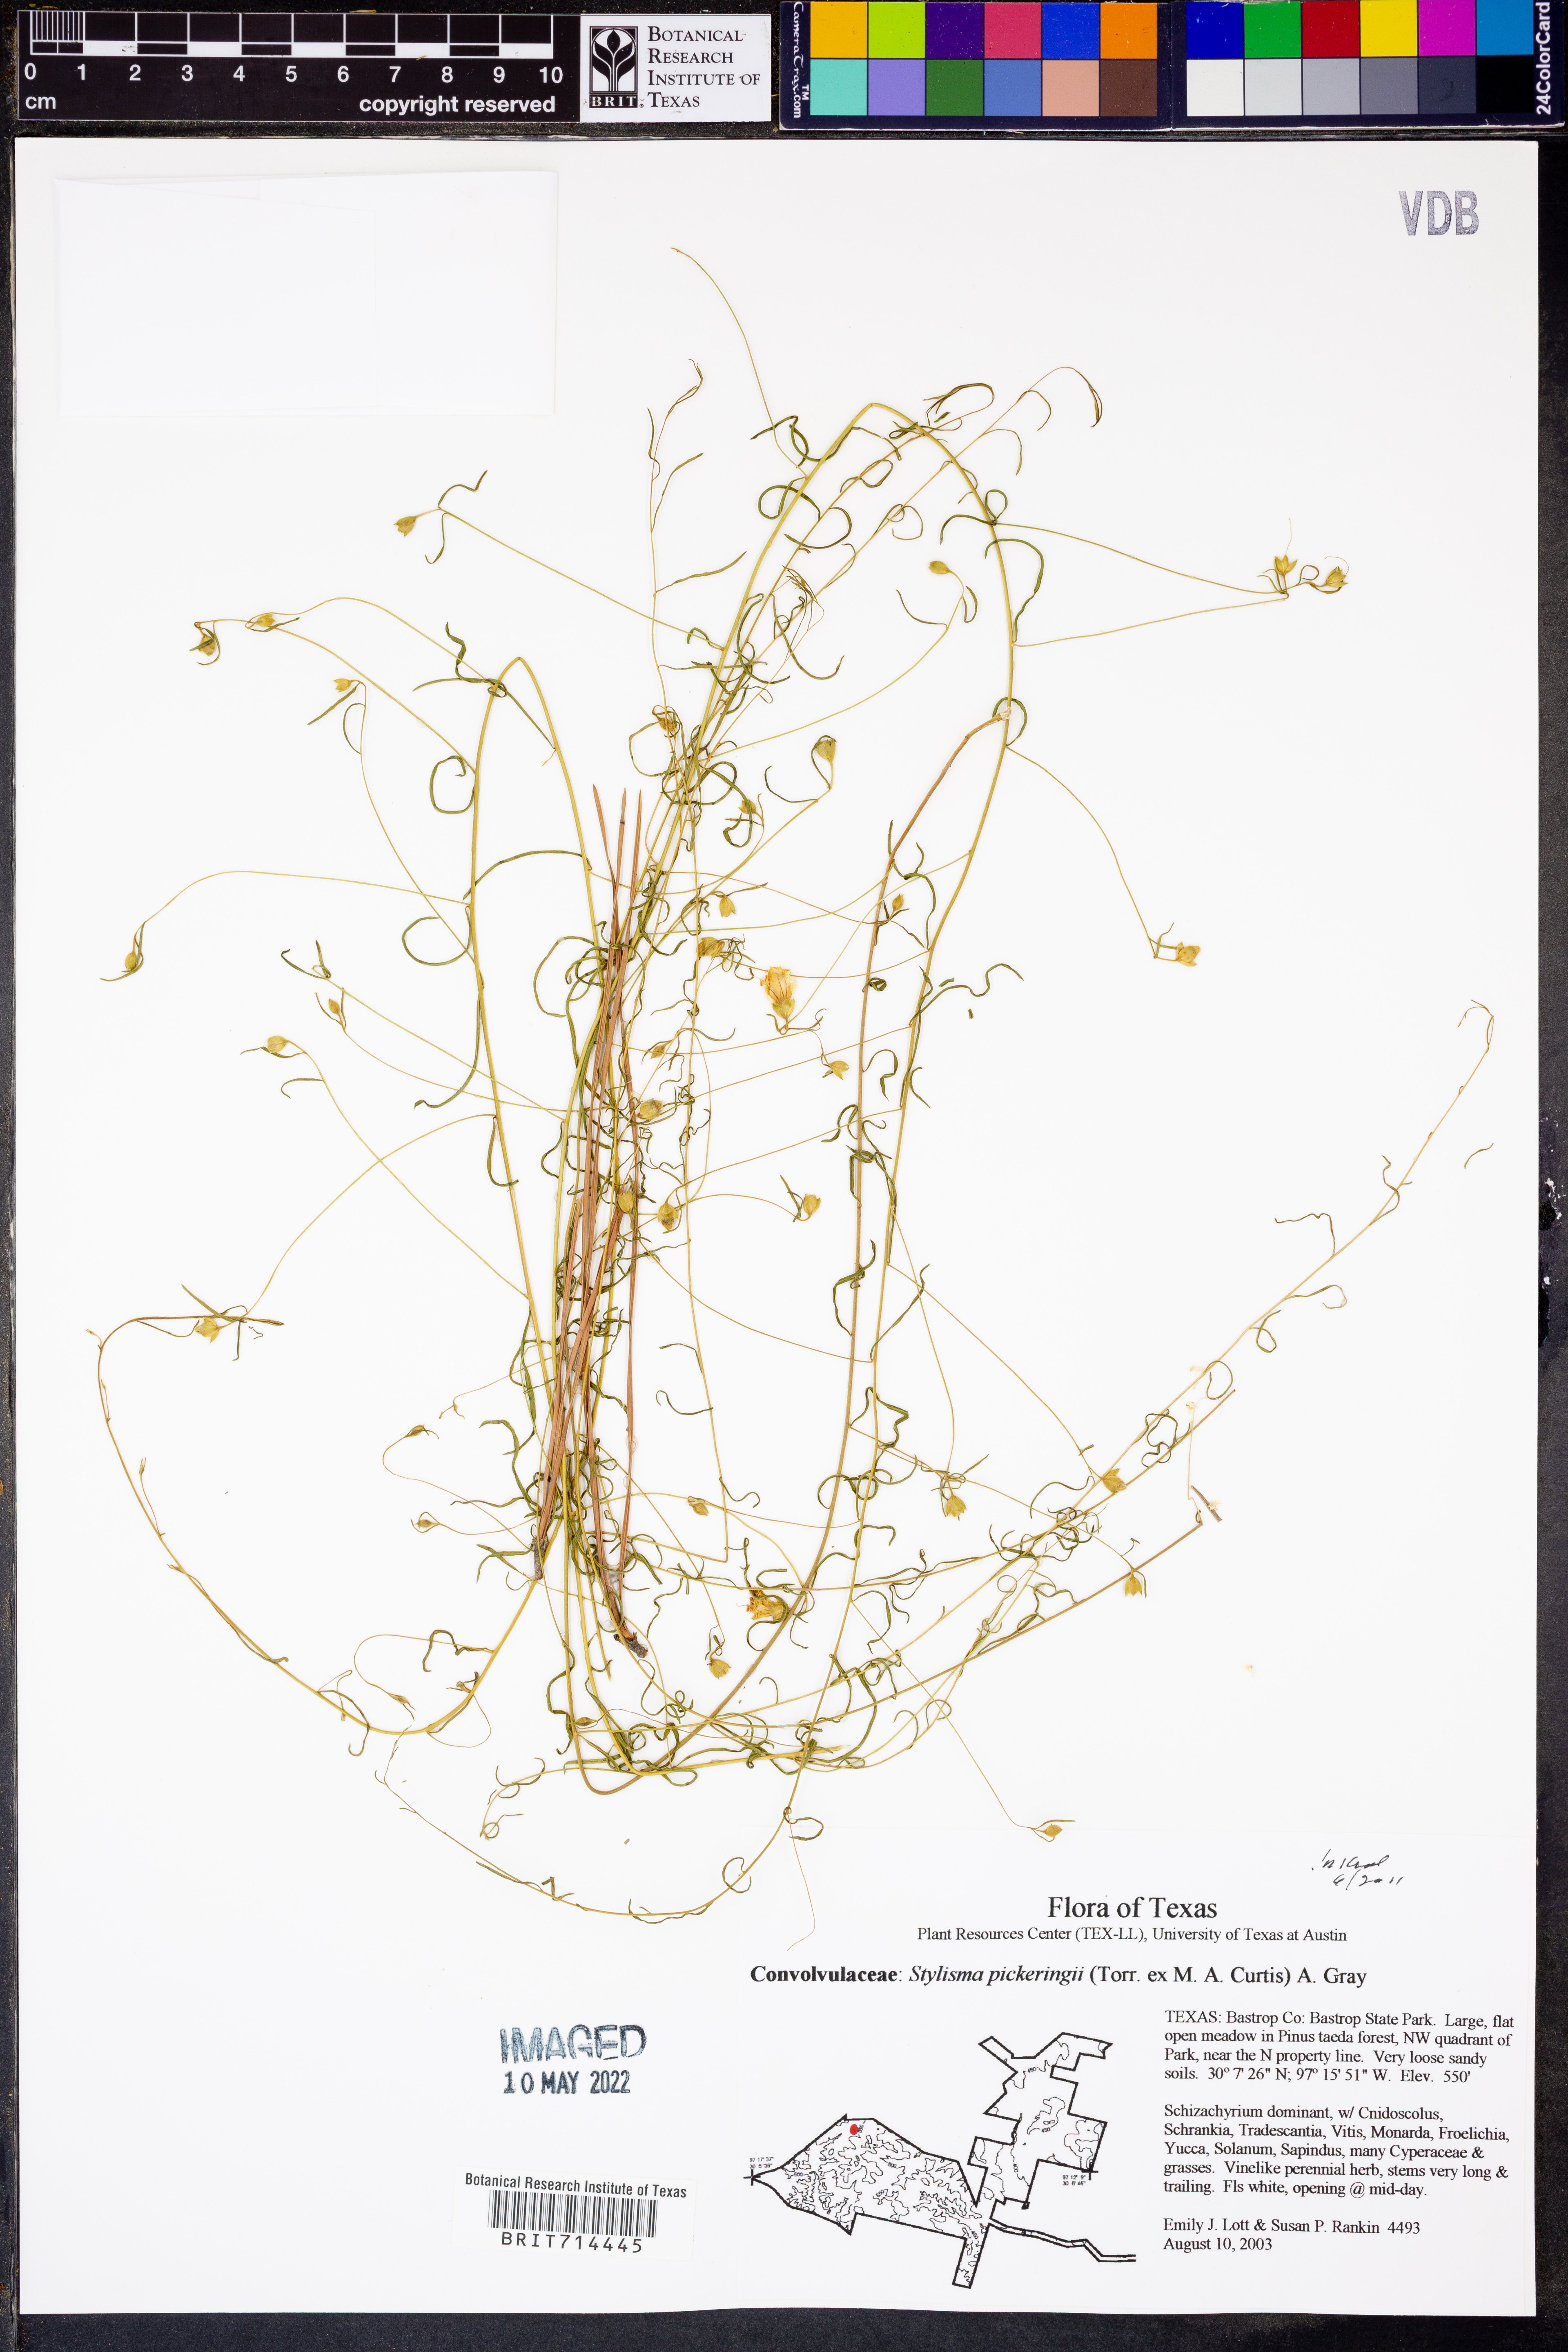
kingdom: Plantae
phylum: Tracheophyta
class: Magnoliopsida
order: Solanales
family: Convolvulaceae
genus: Stylisma
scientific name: Stylisma pickeringii
